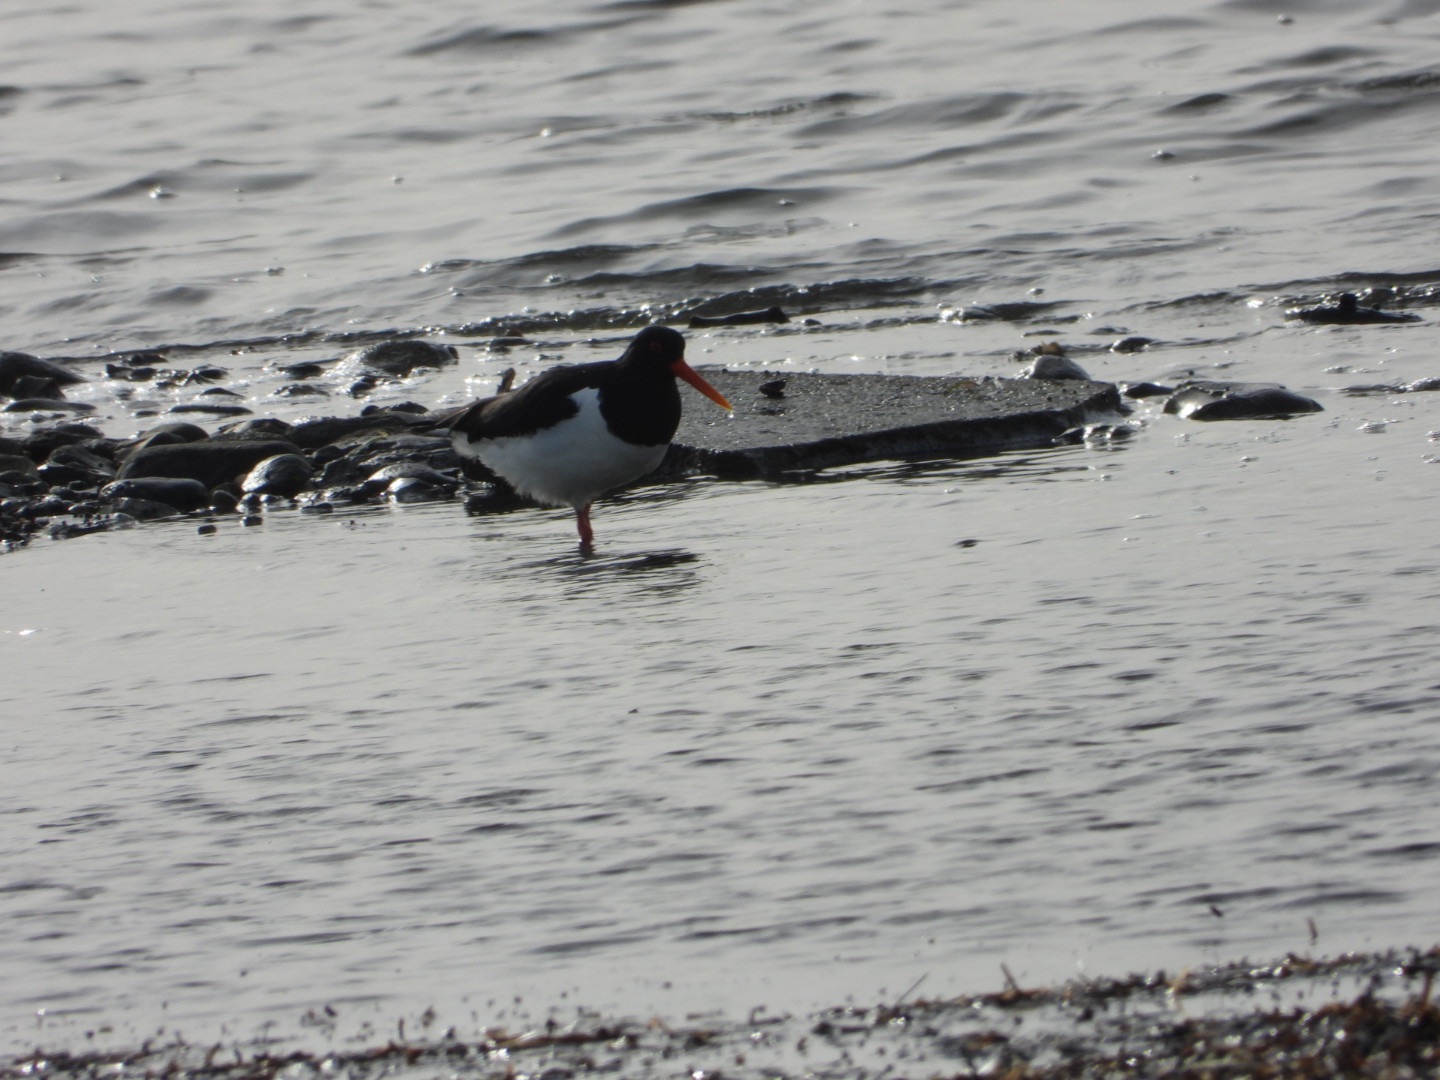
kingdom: Animalia
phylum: Chordata
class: Aves
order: Charadriiformes
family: Haematopodidae
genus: Haematopus
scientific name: Haematopus ostralegus
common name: Strandskade
